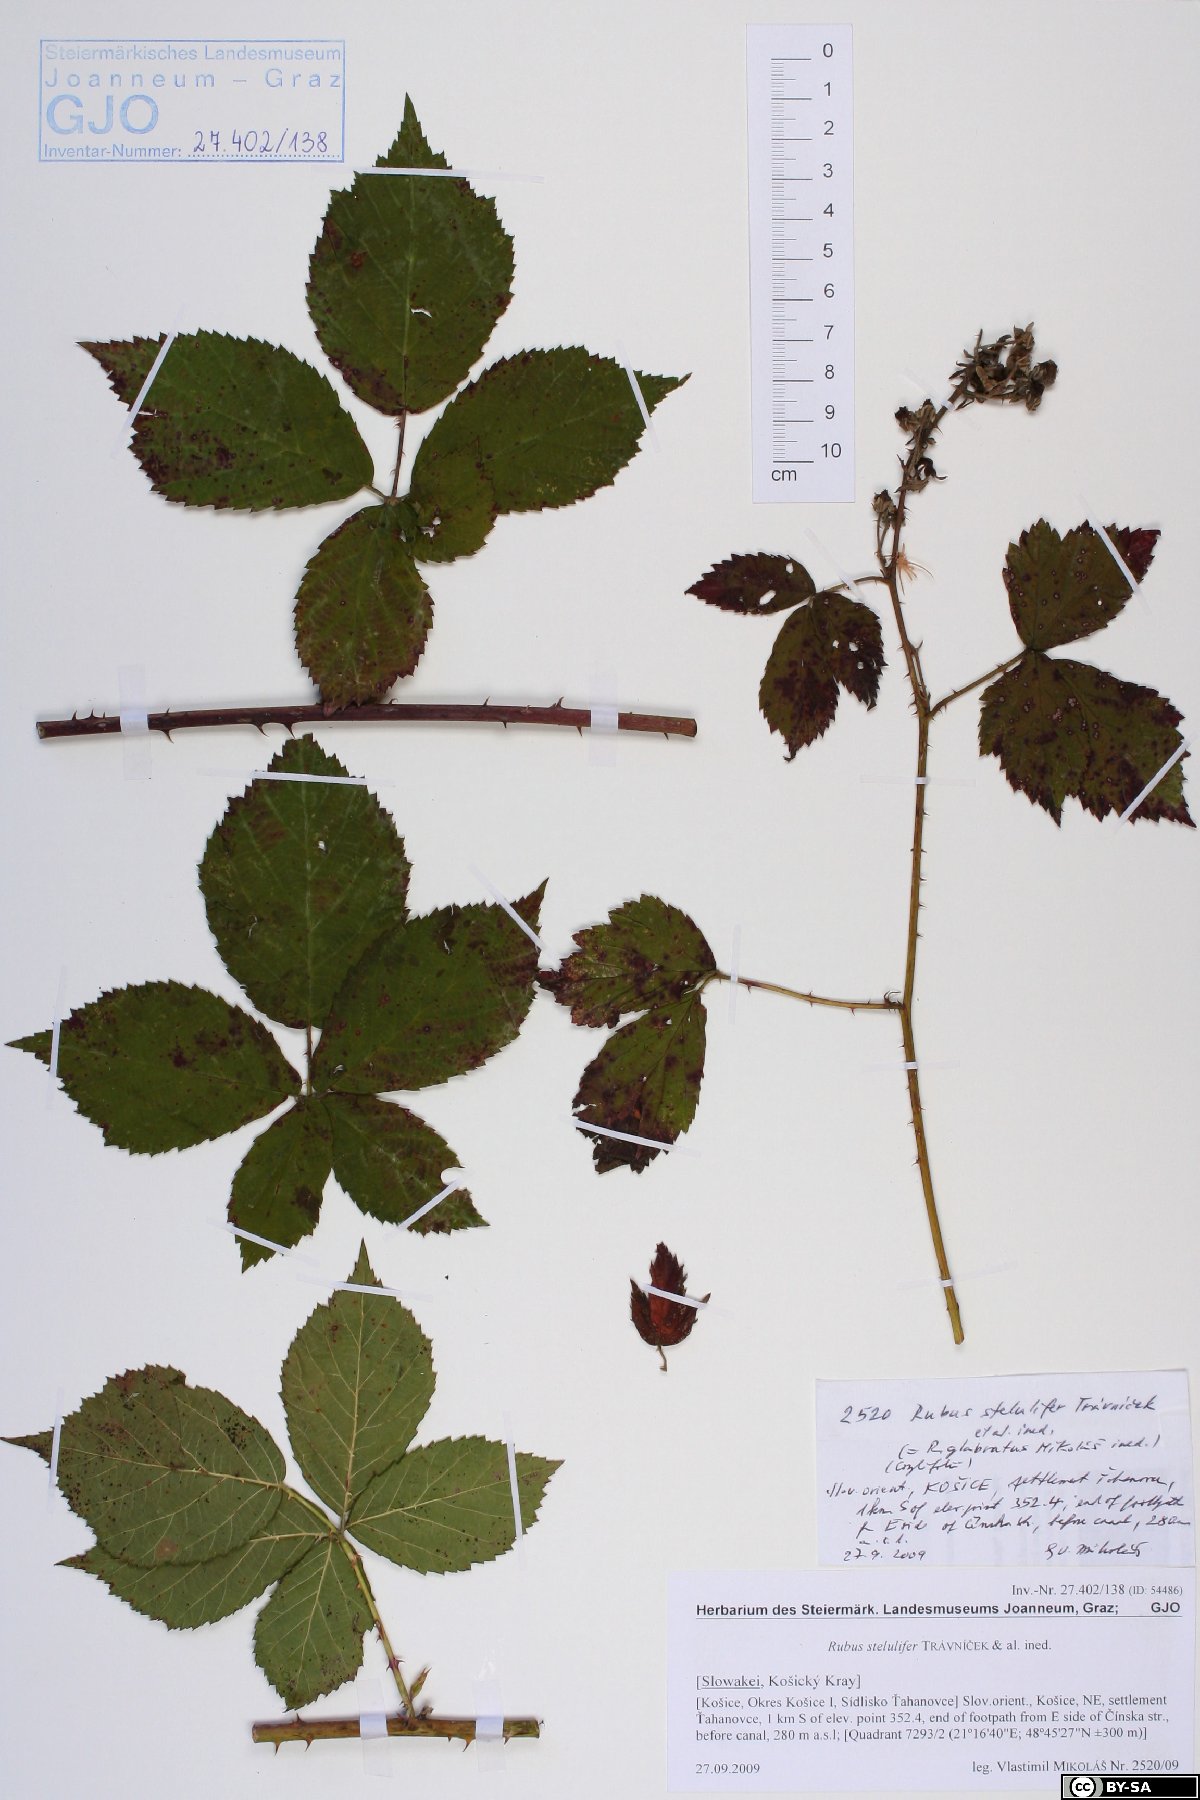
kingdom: Plantae
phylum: Tracheophyta
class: Magnoliopsida
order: Rosales
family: Rosaceae
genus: Rubus
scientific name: Rubus
